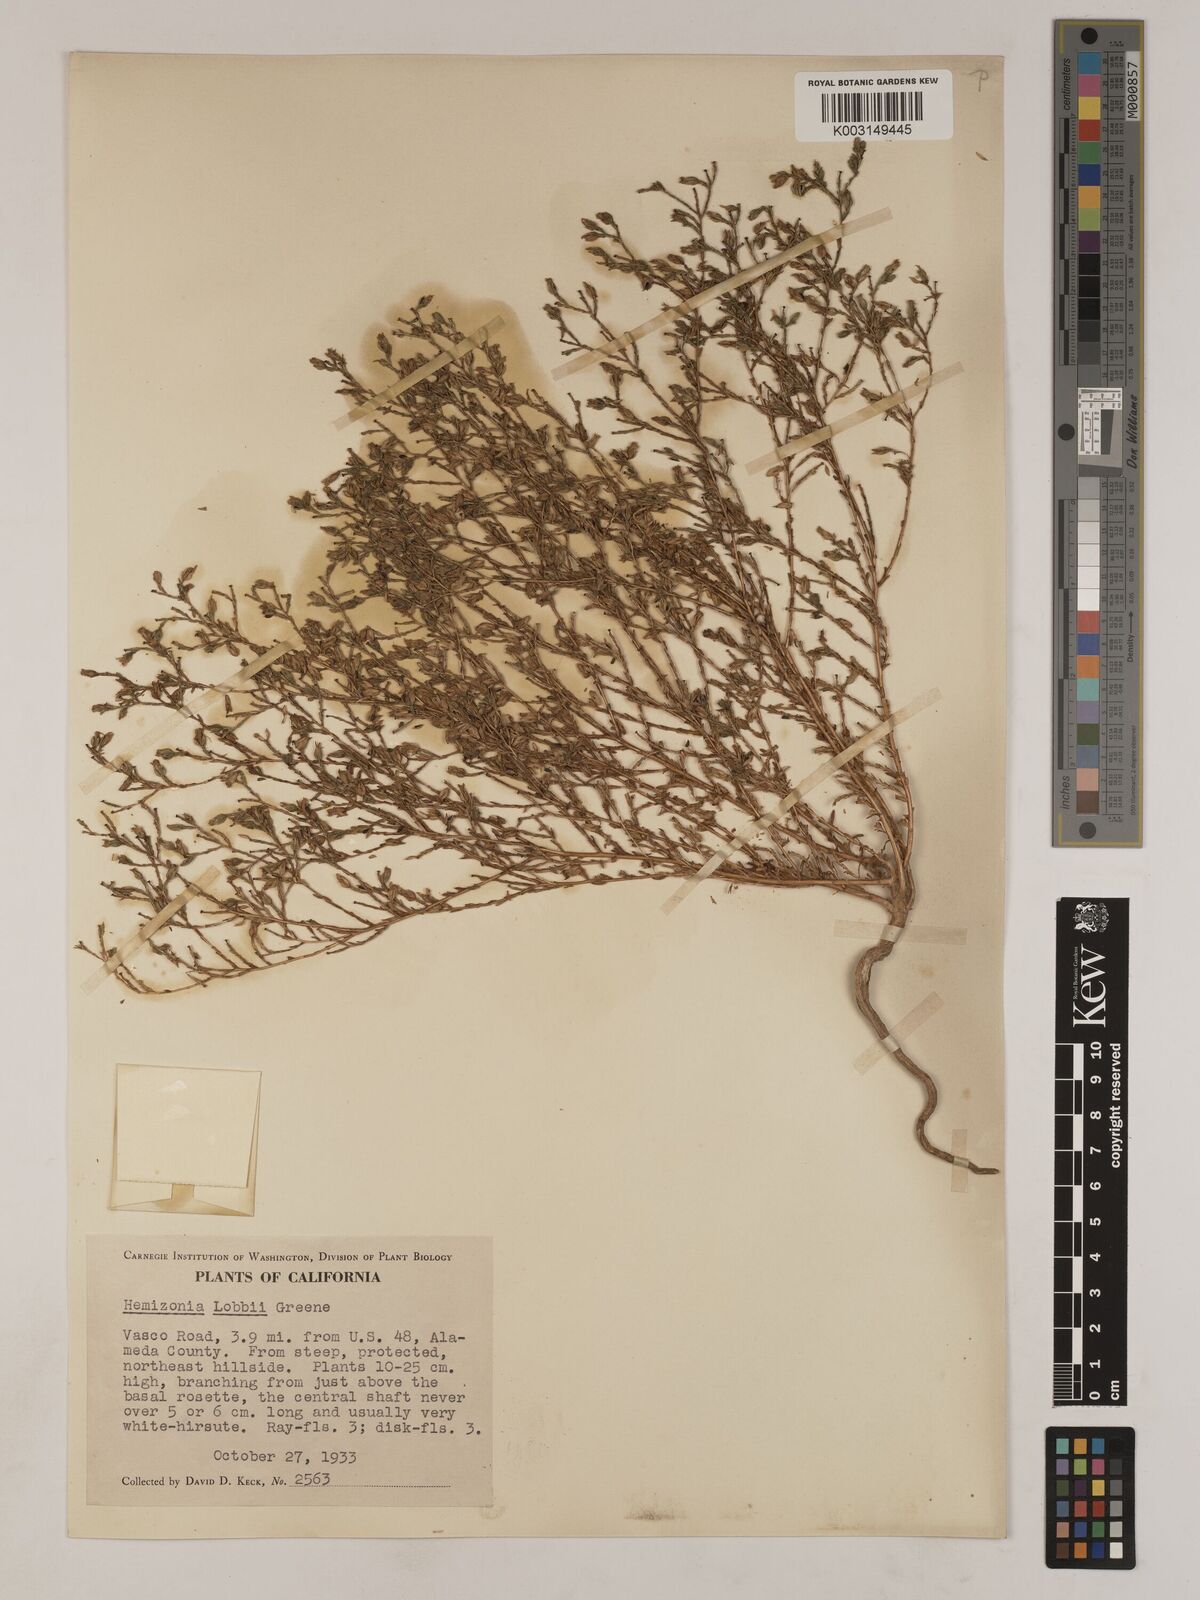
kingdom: Plantae
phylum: Tracheophyta
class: Magnoliopsida
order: Asterales
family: Asteraceae
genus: Deinandra
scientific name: Deinandra lobbii
